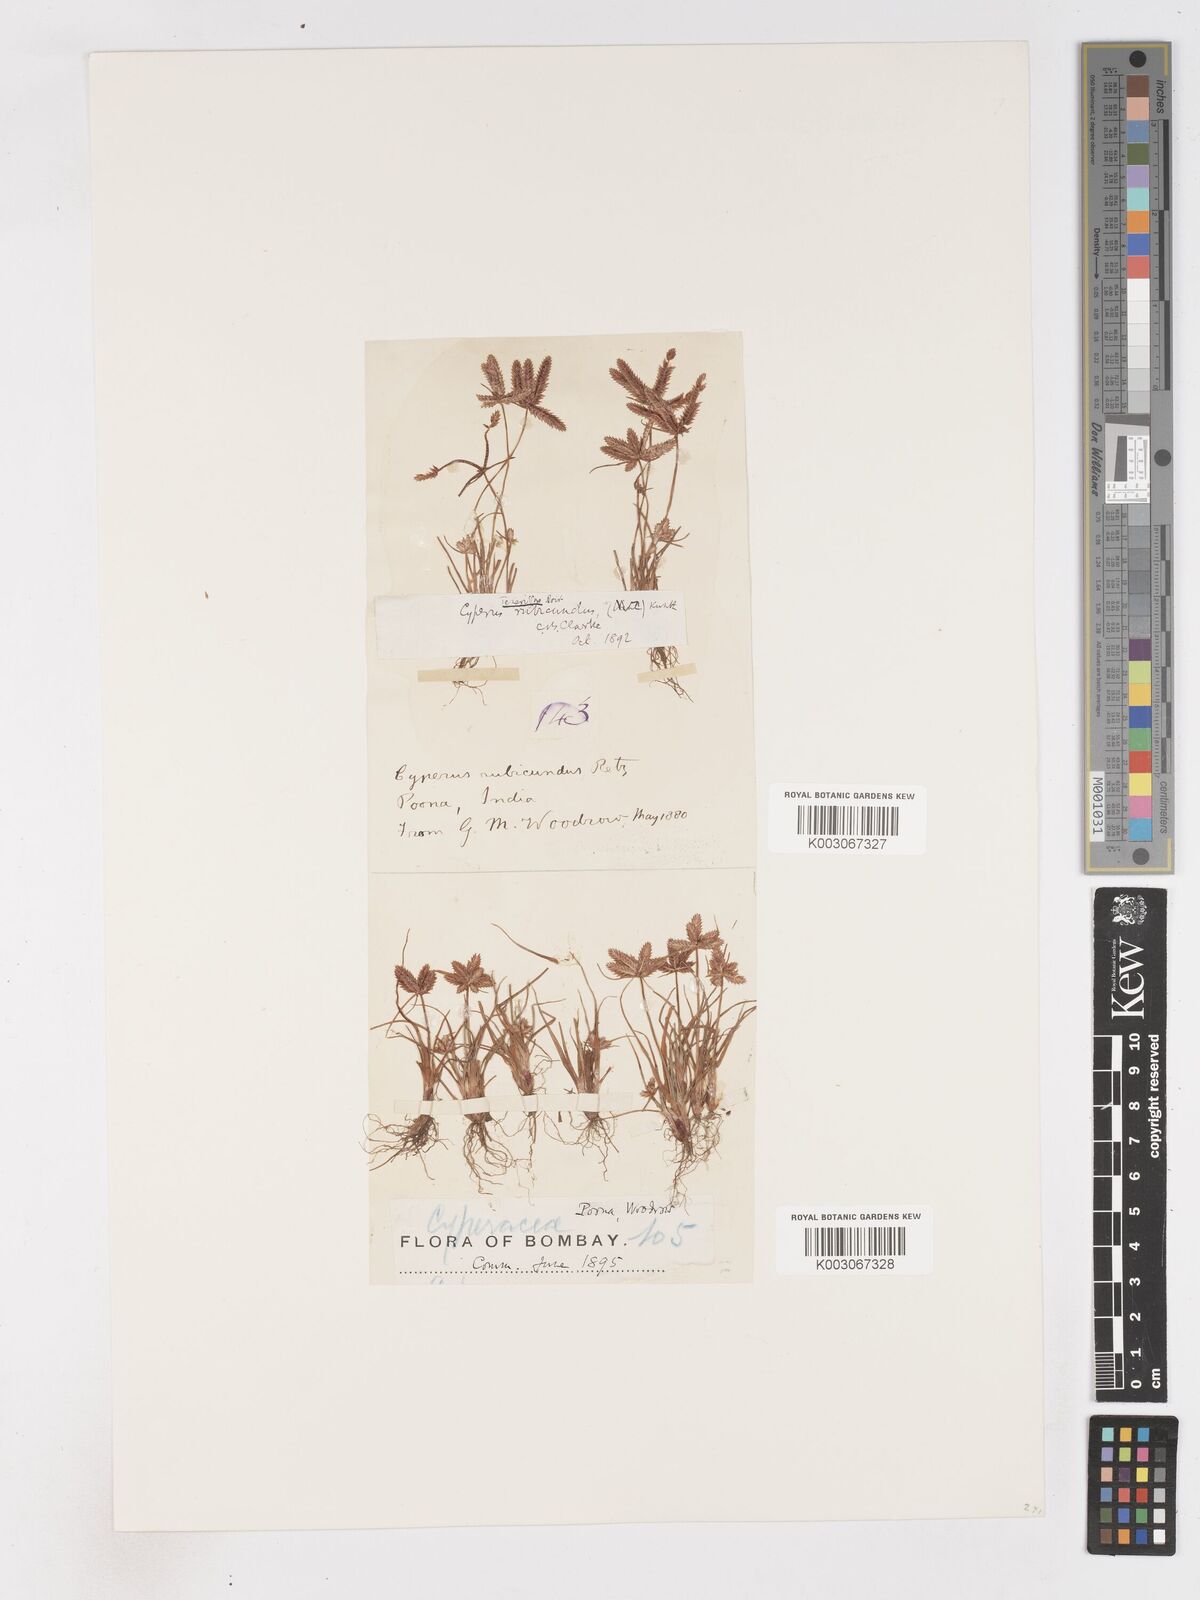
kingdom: Plantae
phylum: Tracheophyta
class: Liliopsida
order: Poales
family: Cyperaceae
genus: Cyperus
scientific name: Cyperus rubicundus
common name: Coco-grass
